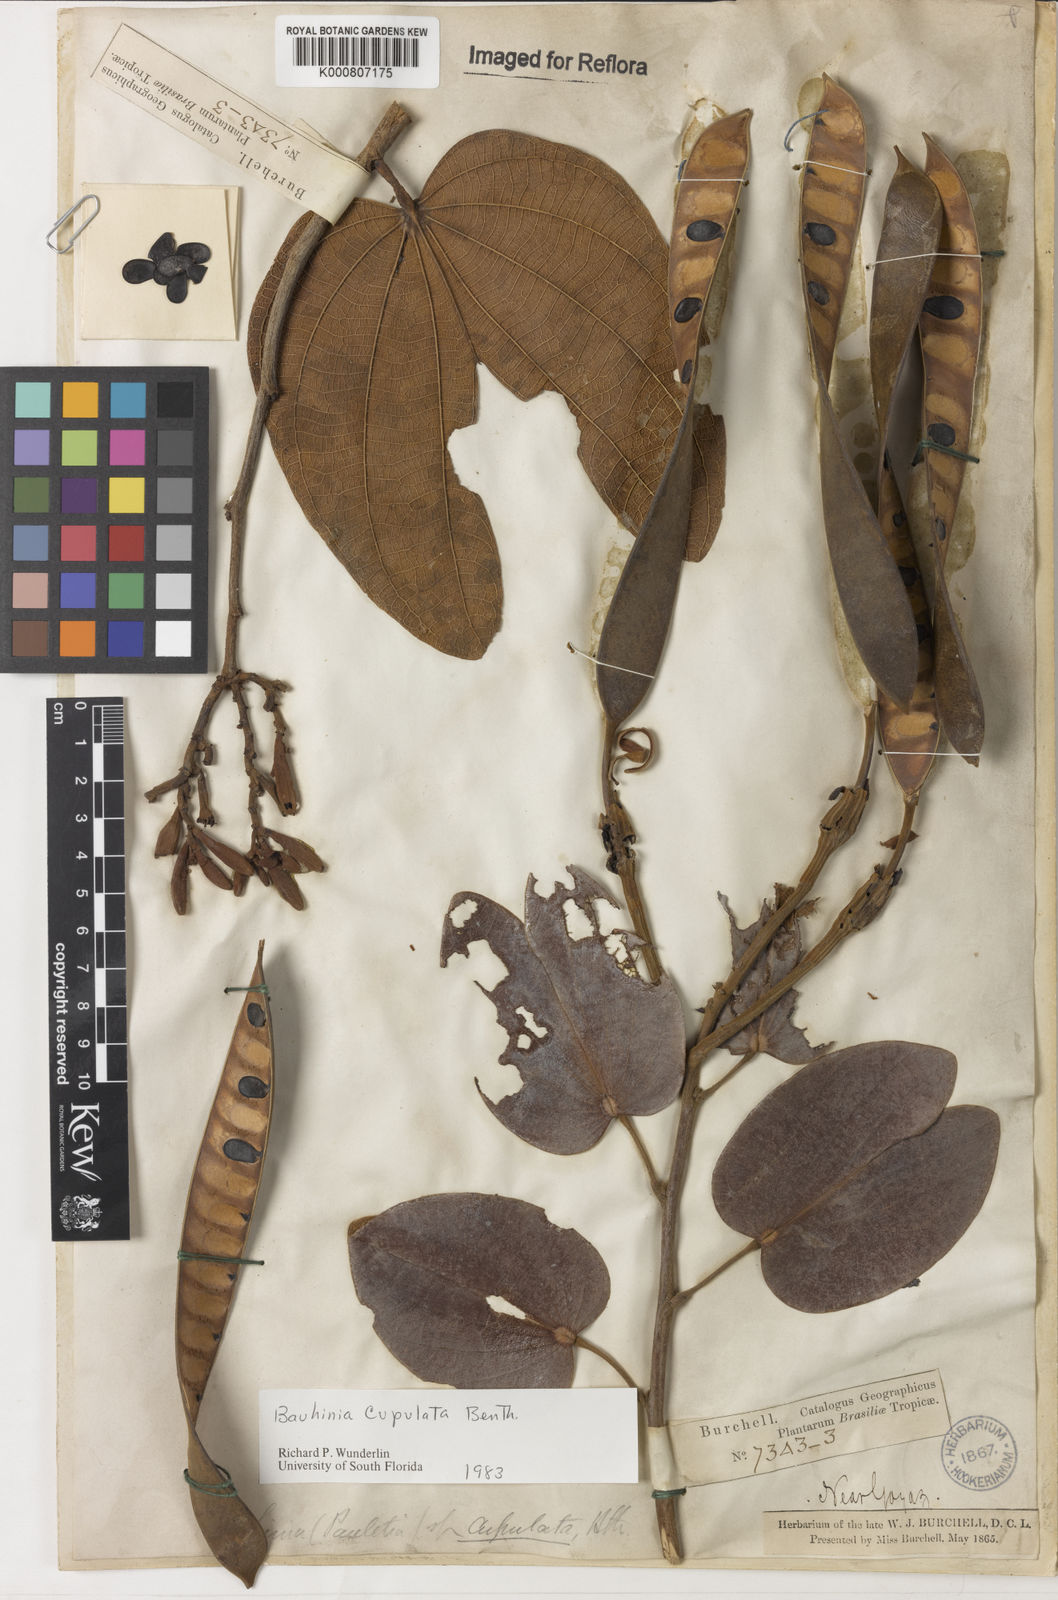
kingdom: Plantae
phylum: Tracheophyta
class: Magnoliopsida
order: Fabales
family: Fabaceae
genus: Bauhinia
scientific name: Bauhinia cupulata
